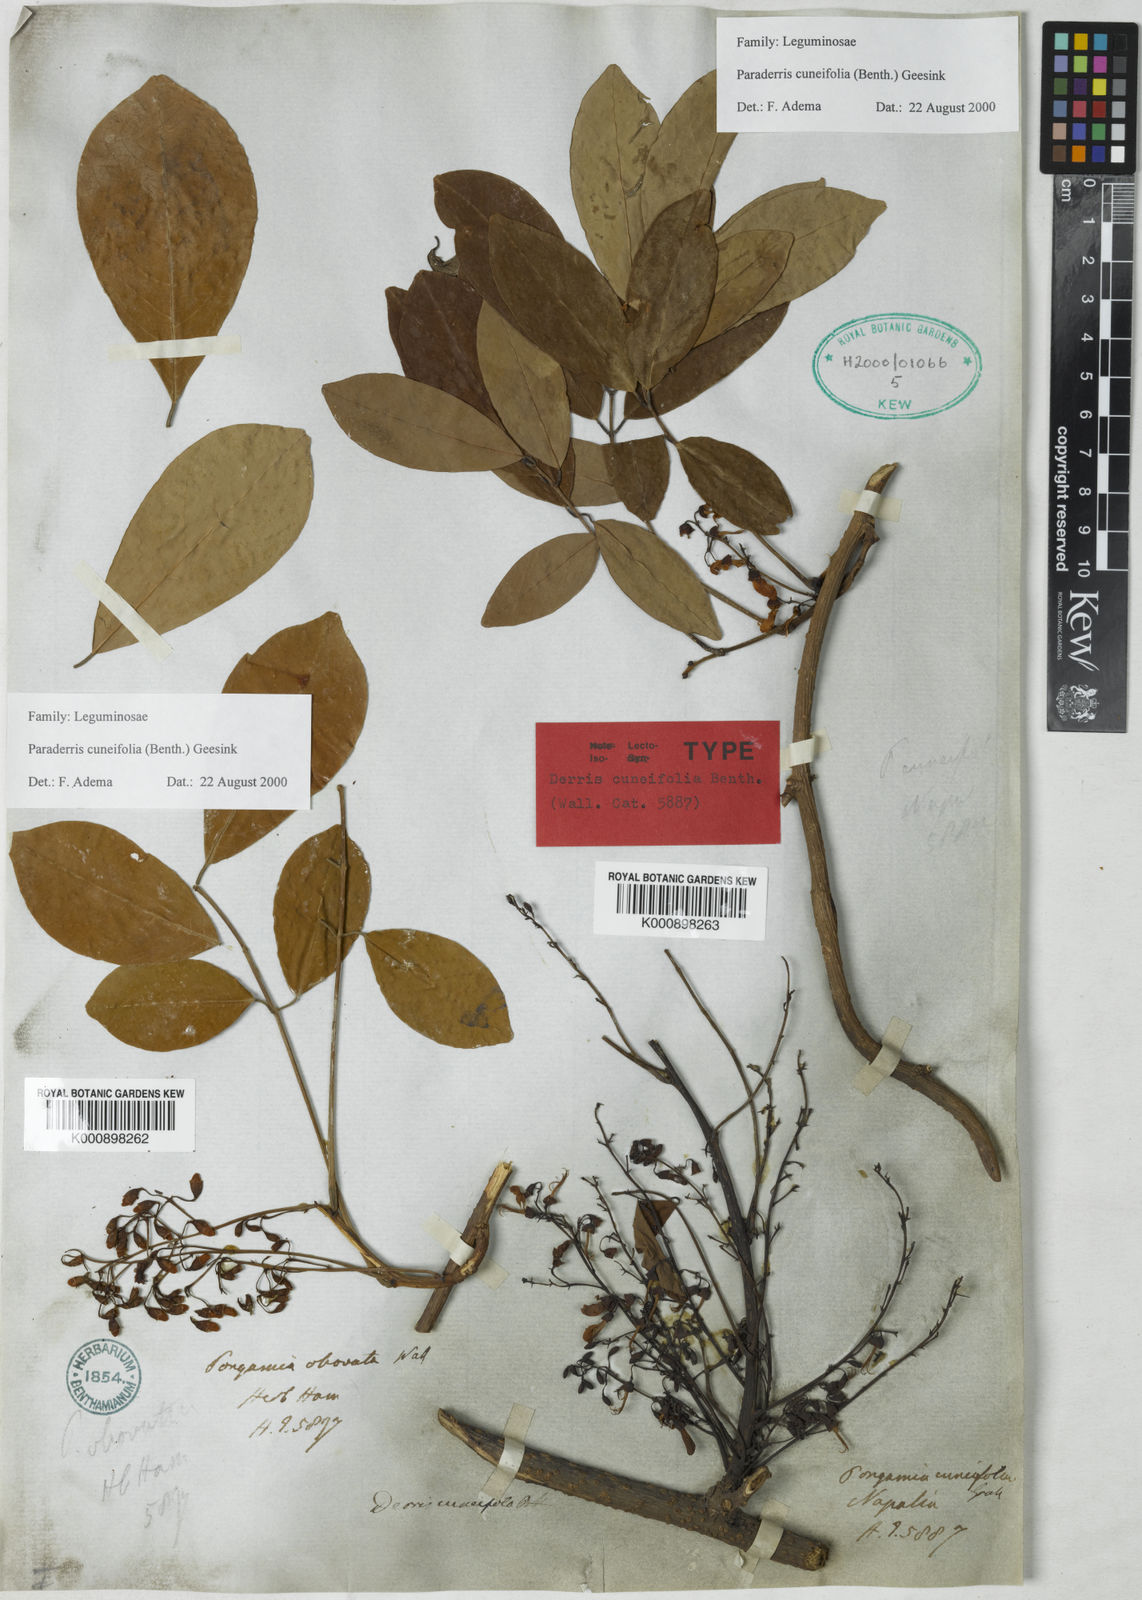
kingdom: Plantae
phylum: Tracheophyta
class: Magnoliopsida
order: Fabales
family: Fabaceae
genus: Derris
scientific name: Derris cuneifolia
